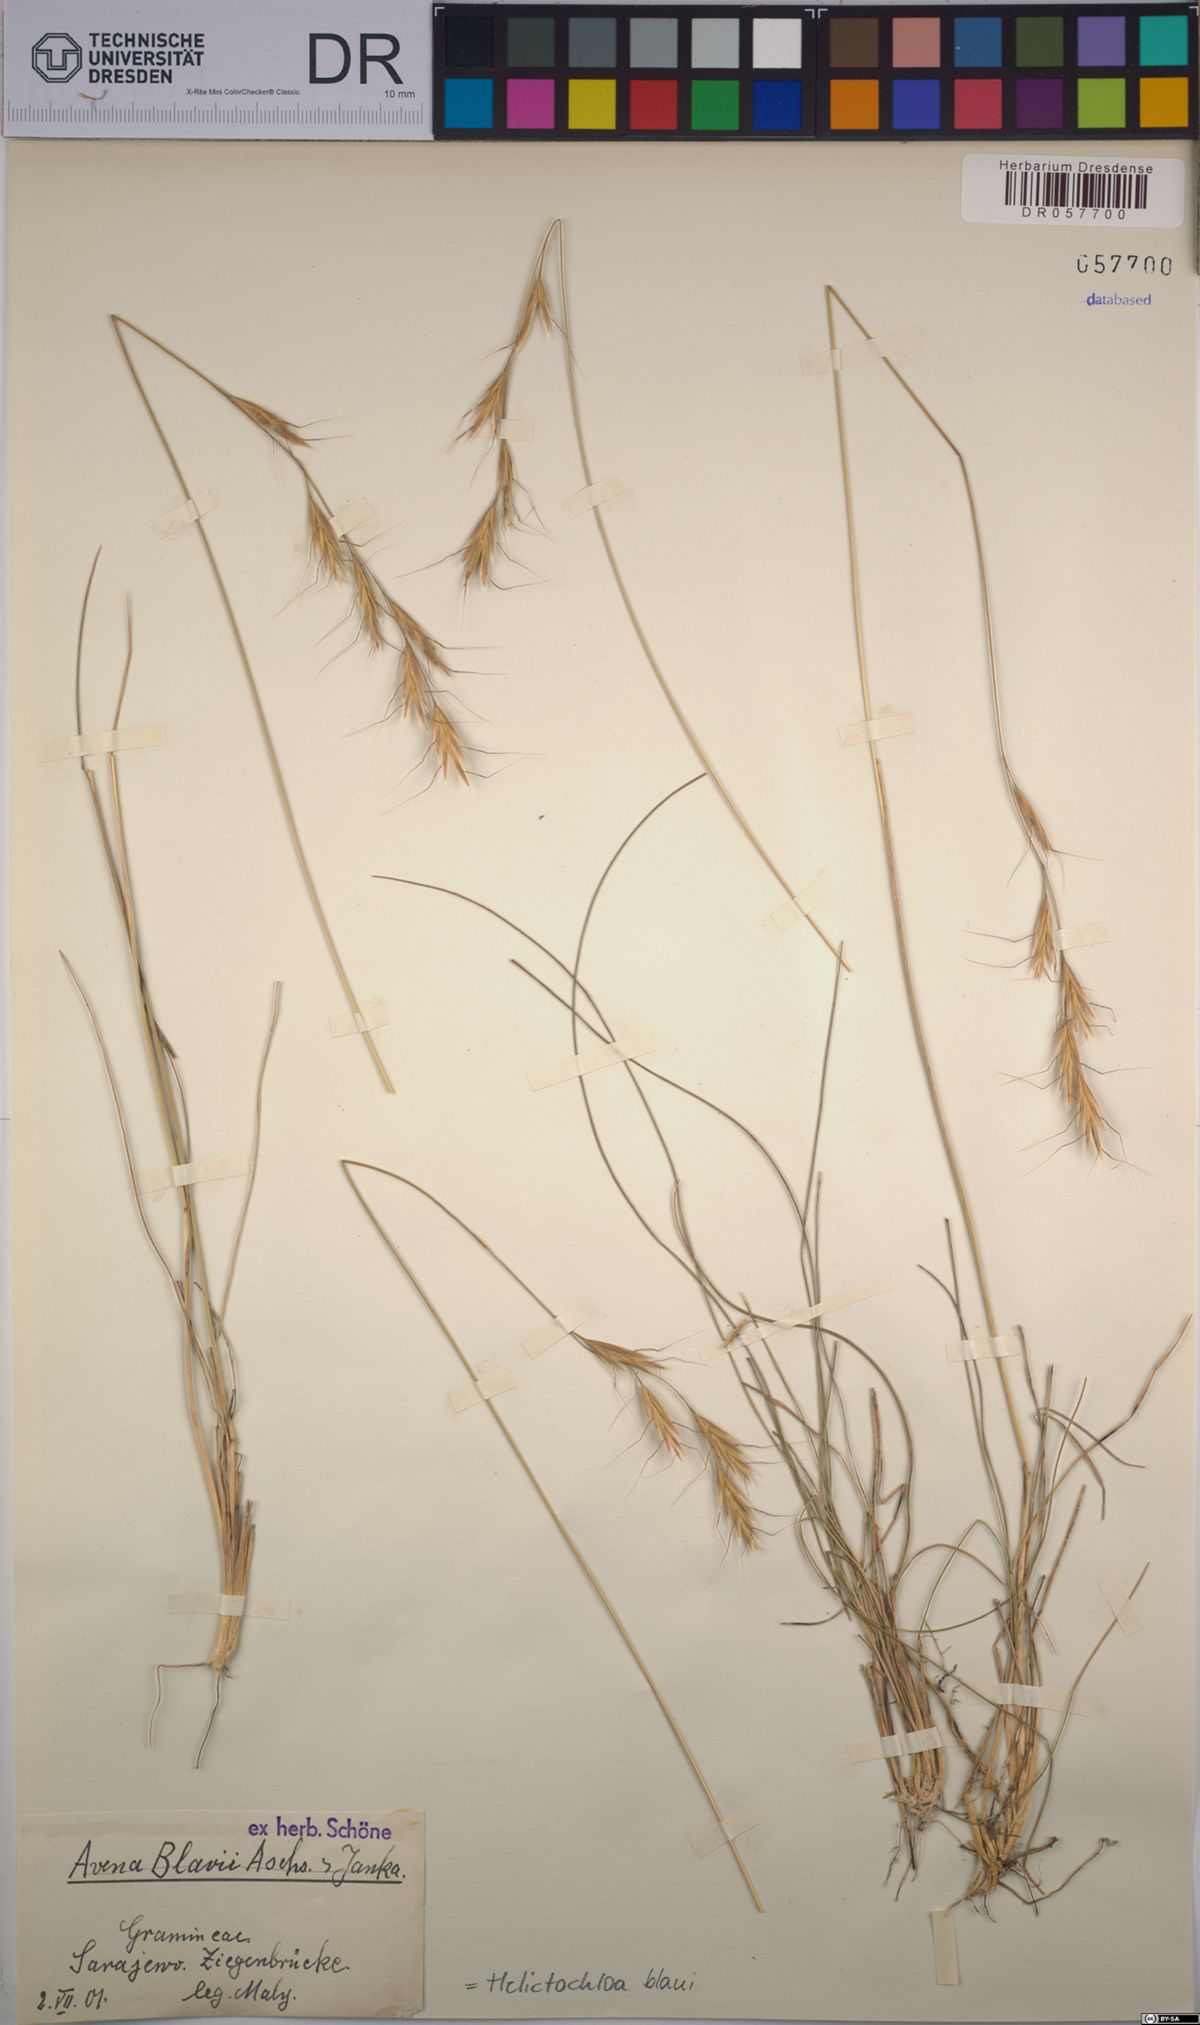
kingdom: Plantae
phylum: Tracheophyta
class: Liliopsida
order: Poales
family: Poaceae
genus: Helictochloa
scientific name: Helictochloa blaui
